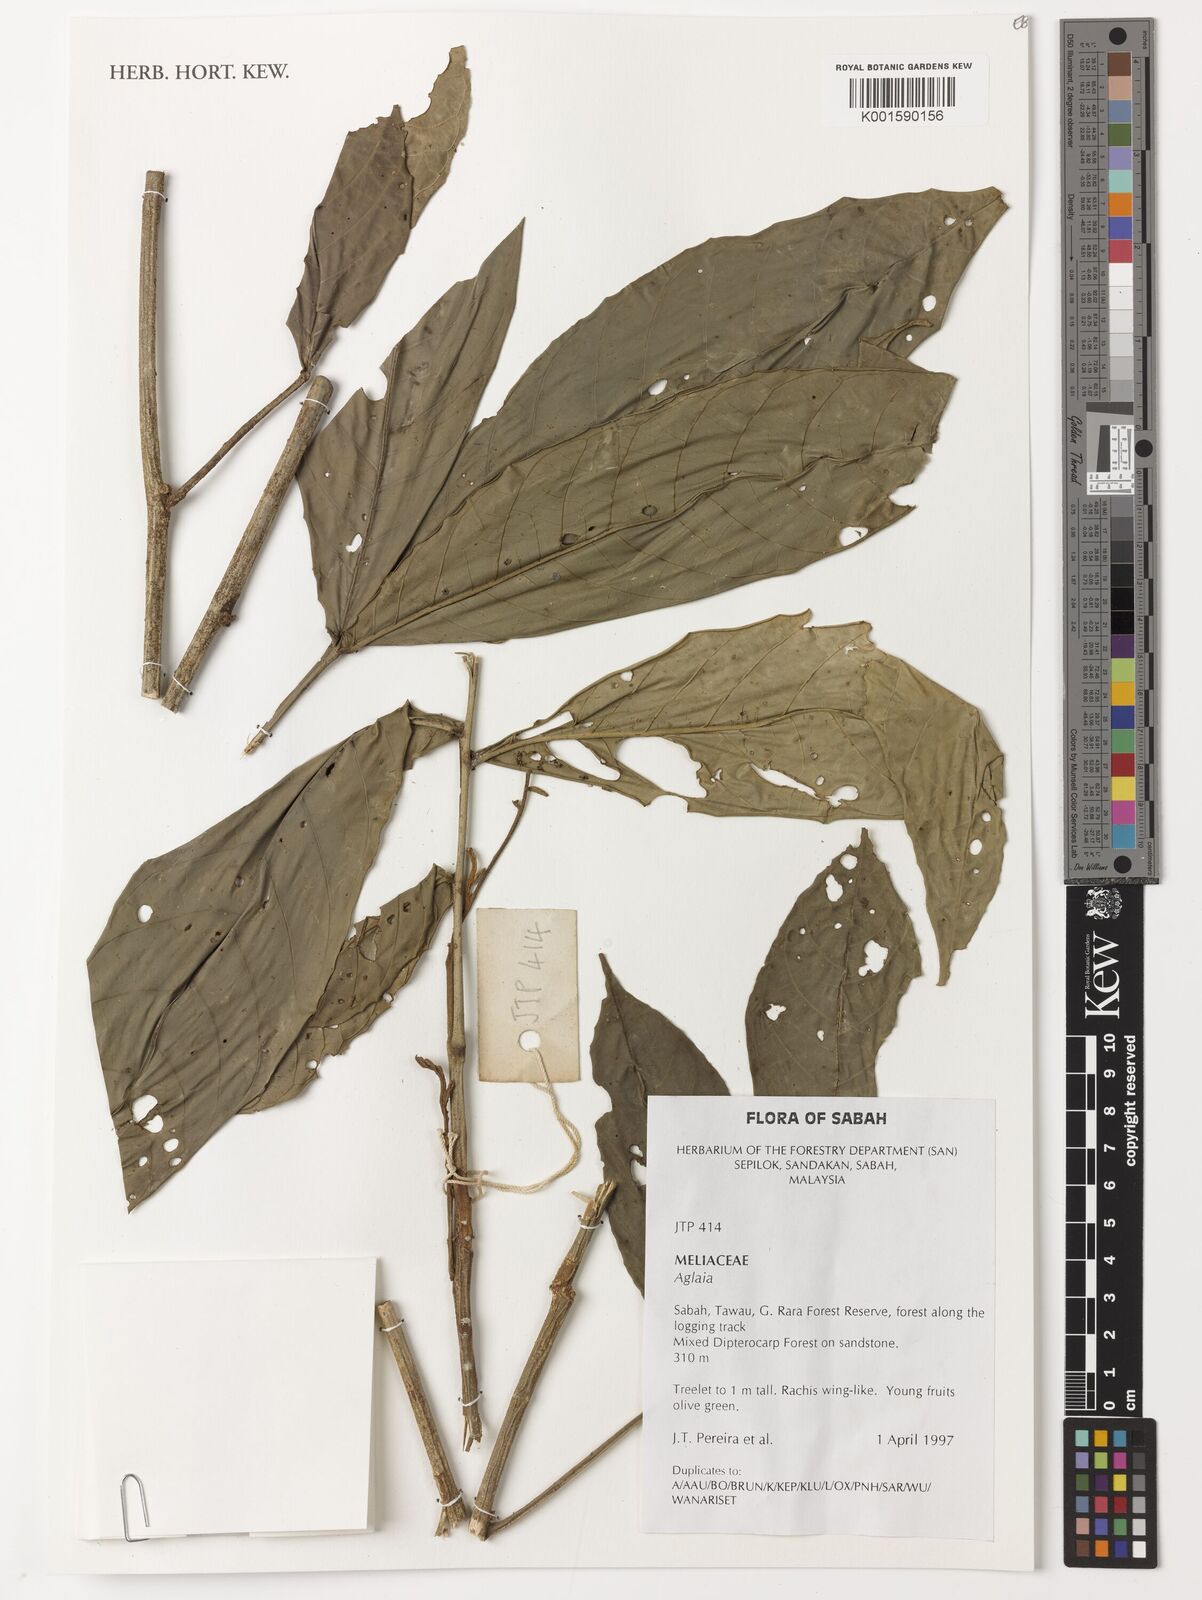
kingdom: Plantae
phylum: Tracheophyta
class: Magnoliopsida
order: Sapindales
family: Meliaceae
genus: Aglaia
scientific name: Aglaia
